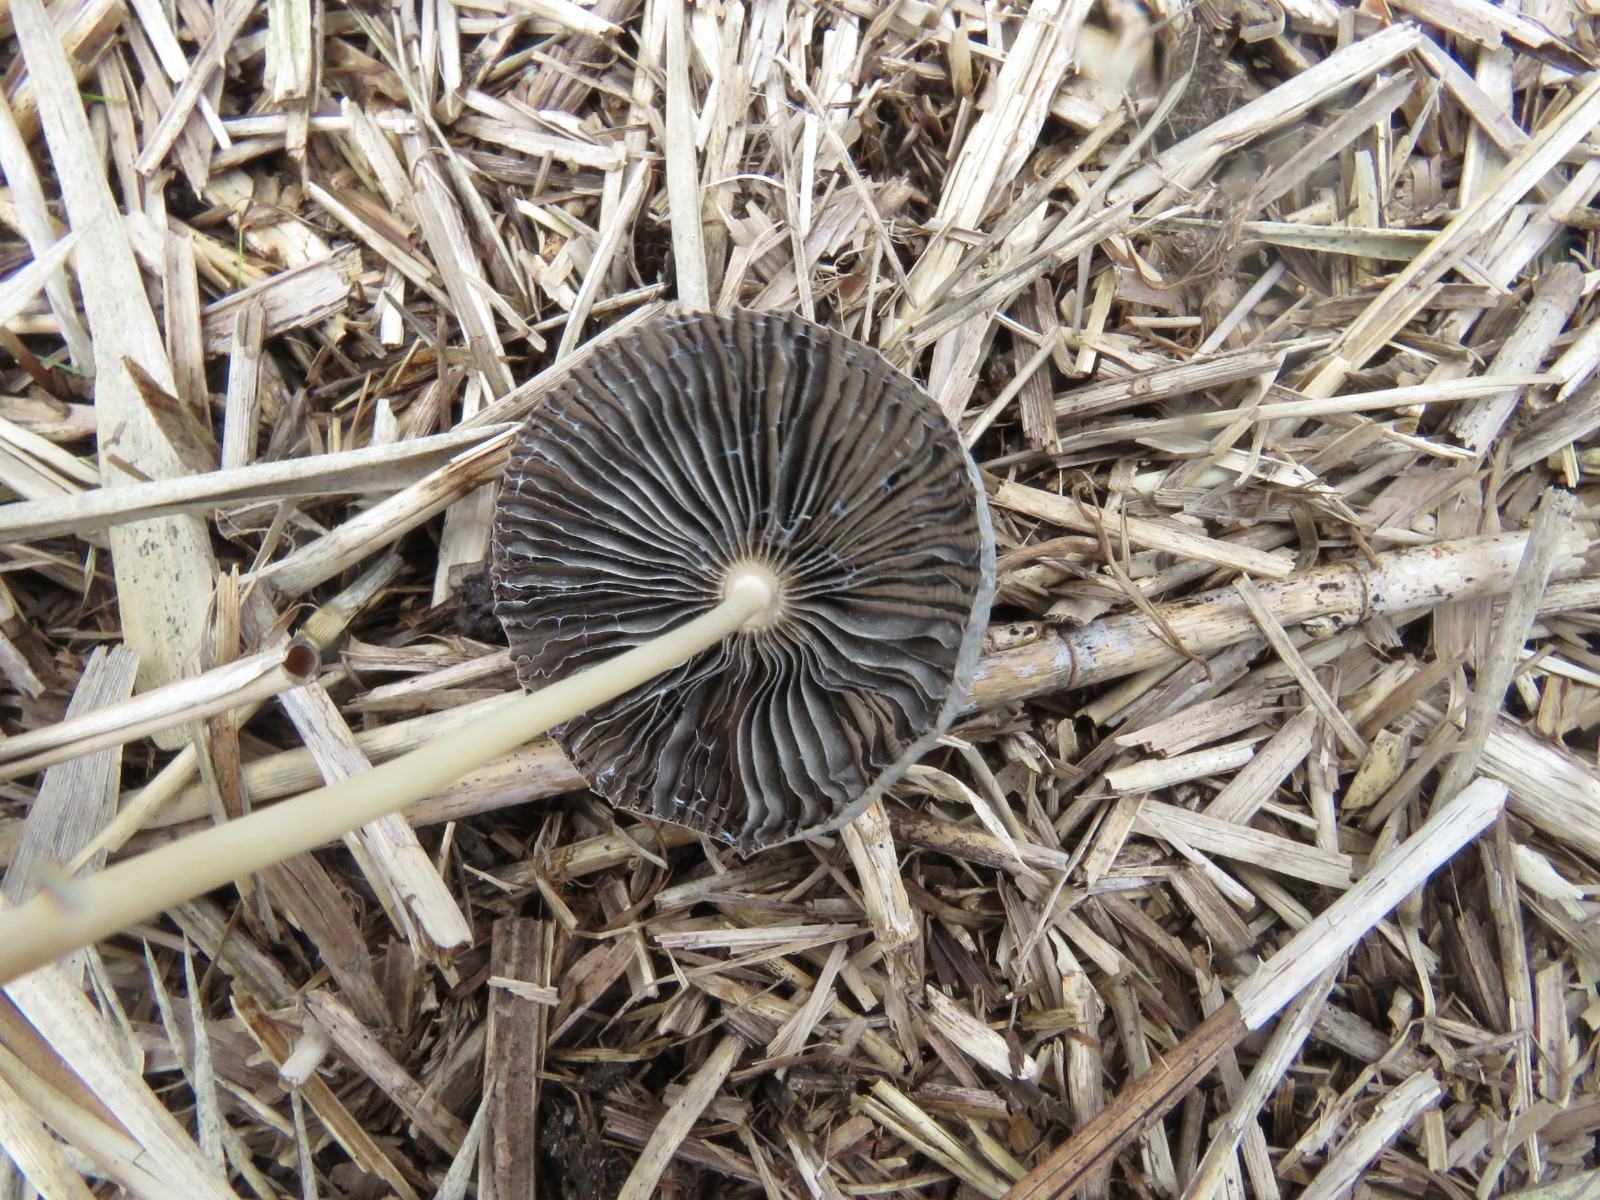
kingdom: Fungi
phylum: Basidiomycota
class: Agaricomycetes
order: Agaricales
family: Psathyrellaceae
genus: Parasola
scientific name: Parasola lactea
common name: glat hjulhat
